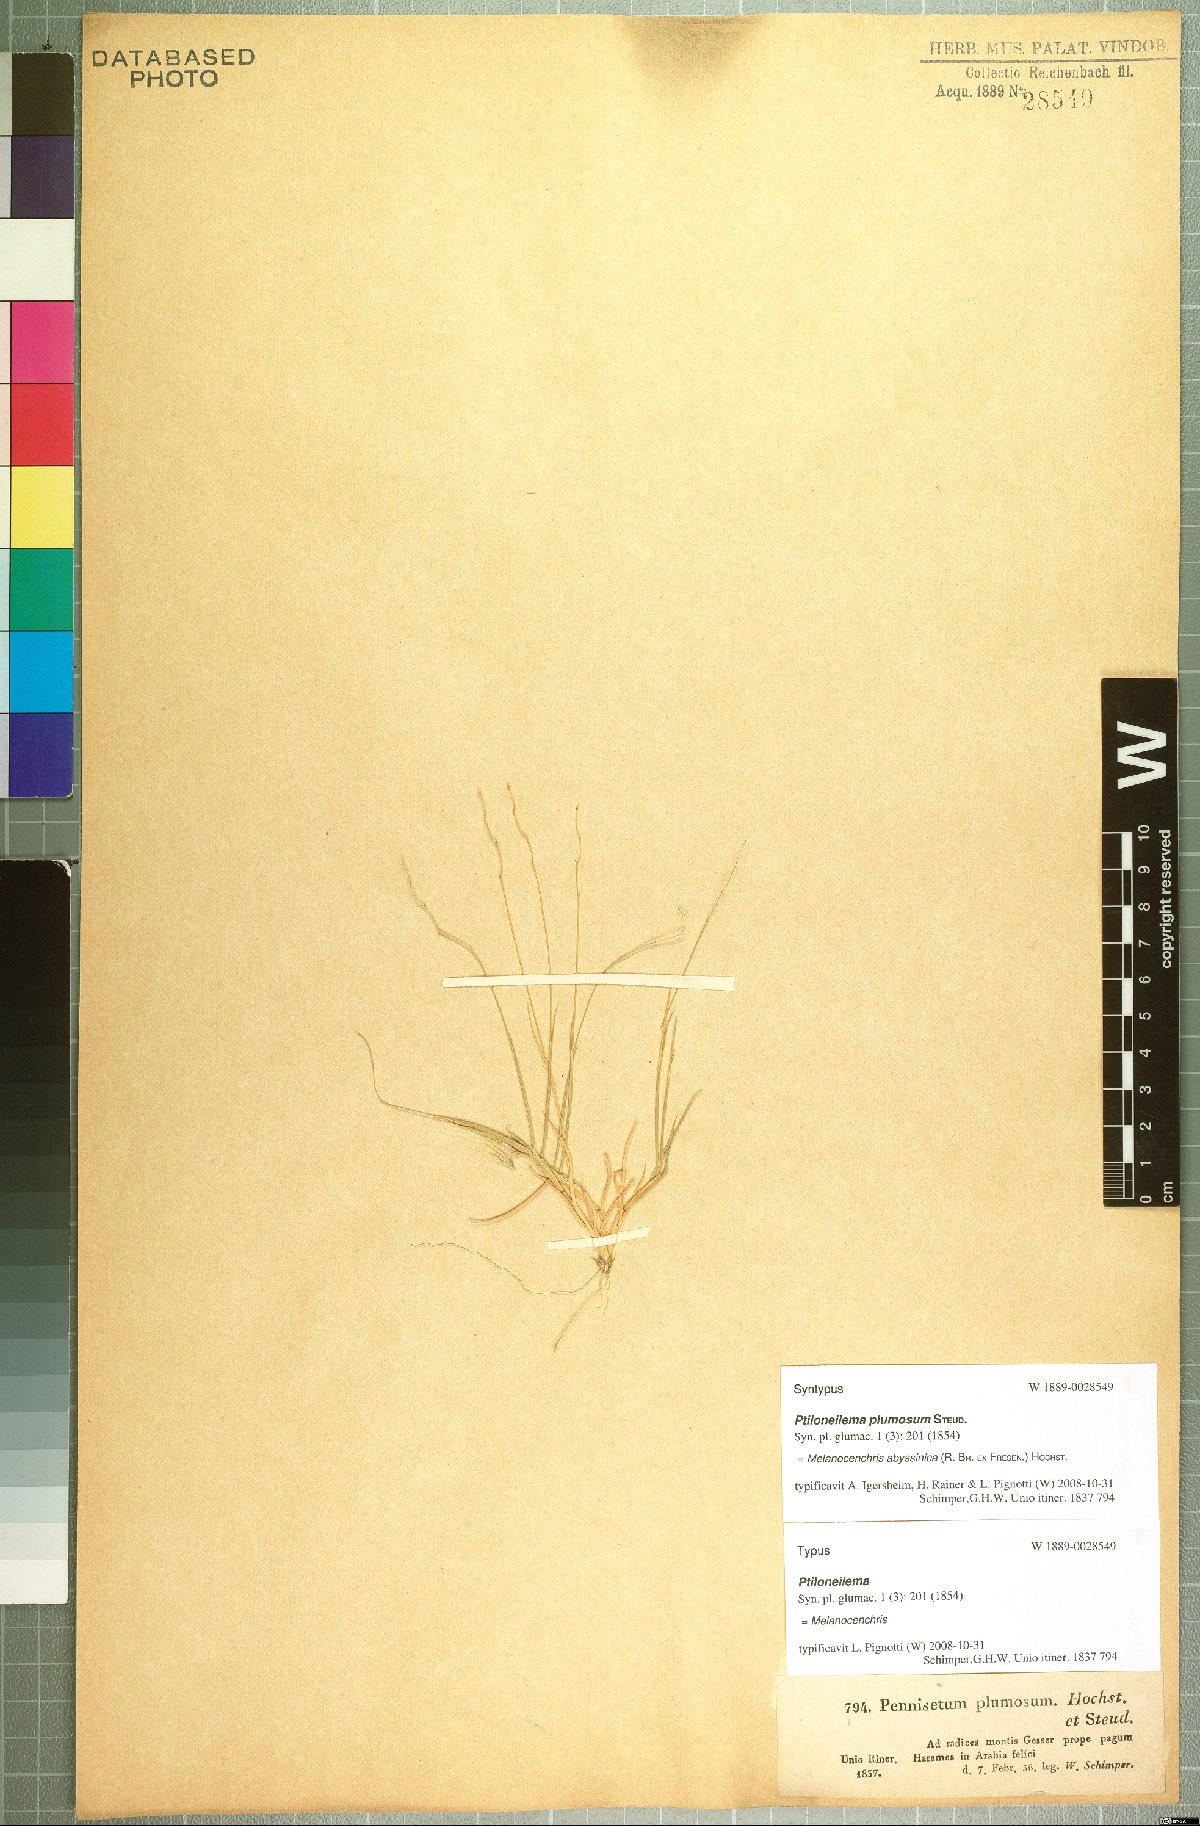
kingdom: Plantae
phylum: Tracheophyta
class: Liliopsida
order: Poales
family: Poaceae
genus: Melanocenchris
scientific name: Melanocenchris abyssinica
